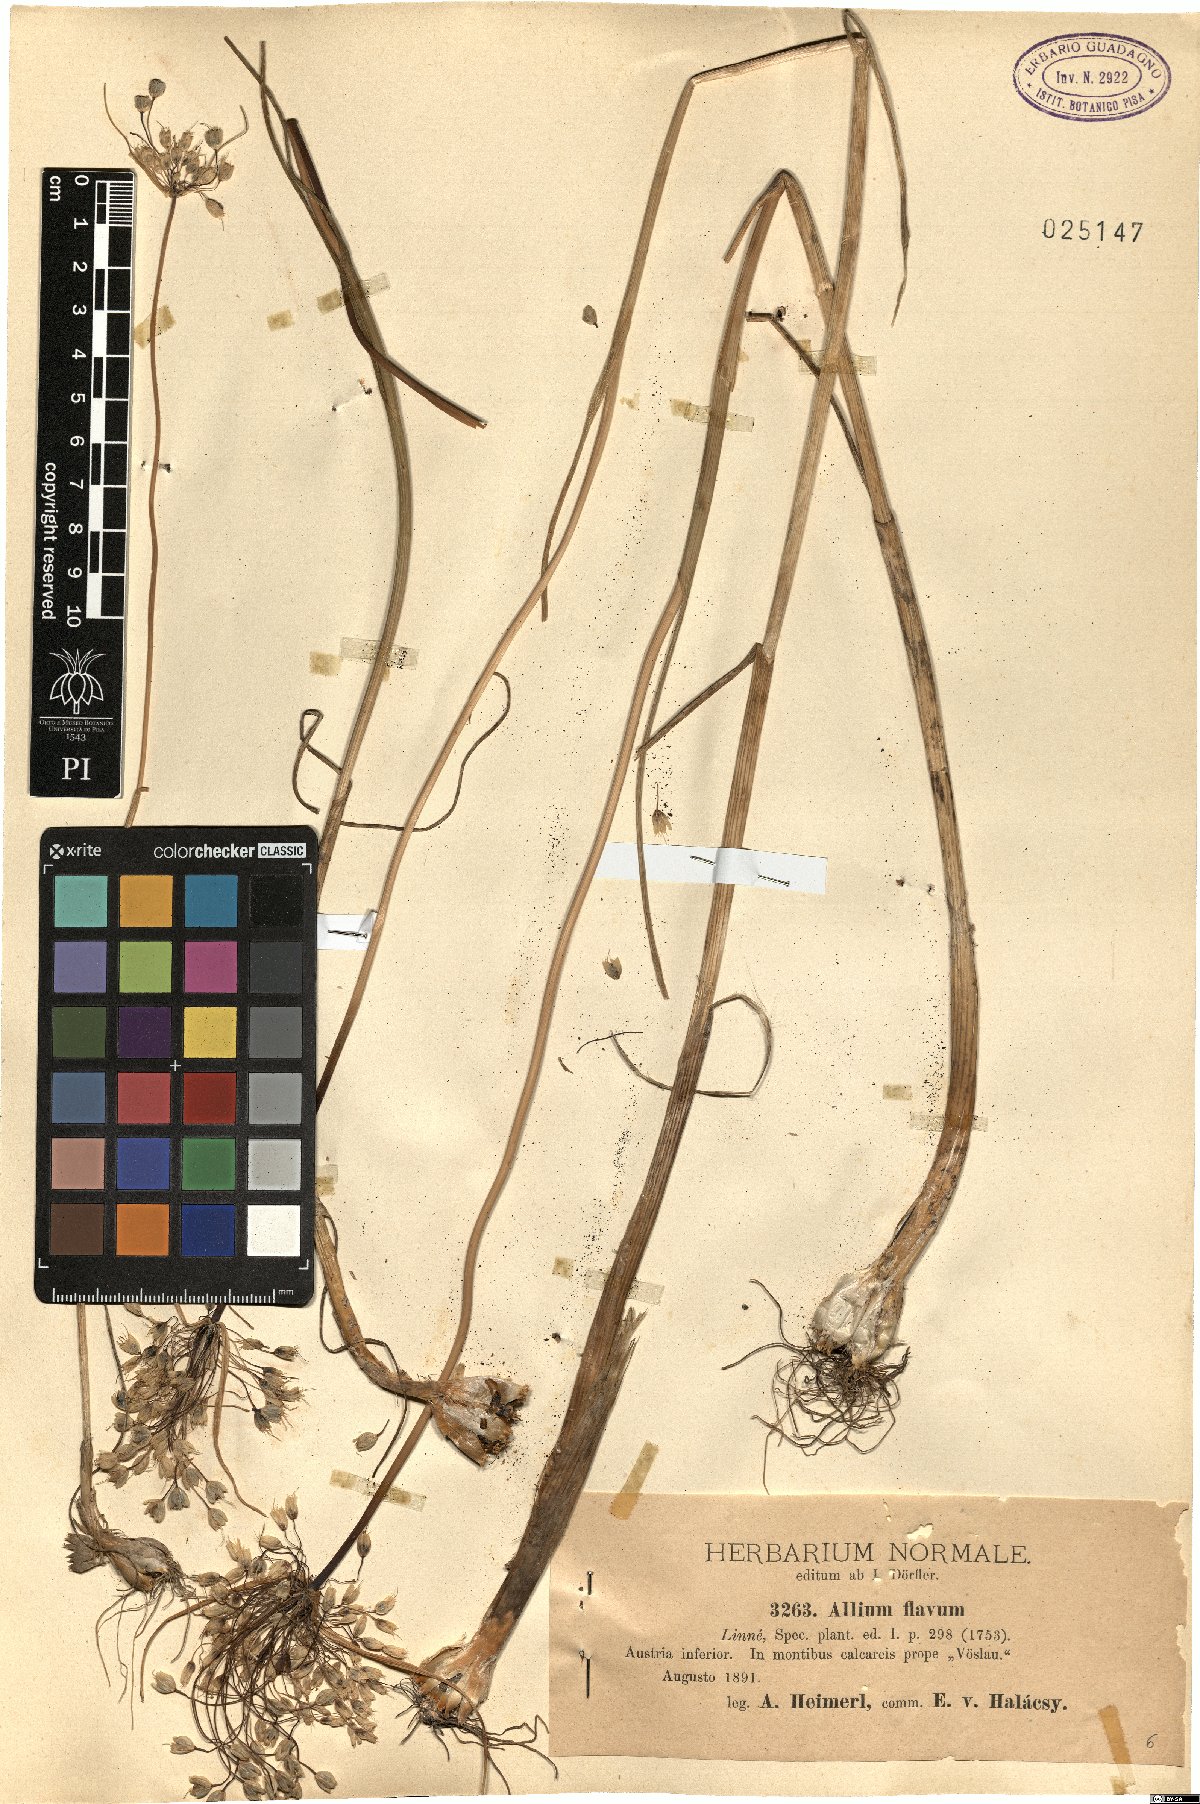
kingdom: Plantae
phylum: Tracheophyta
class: Liliopsida
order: Asparagales
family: Amaryllidaceae
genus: Allium
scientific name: Allium flavum
